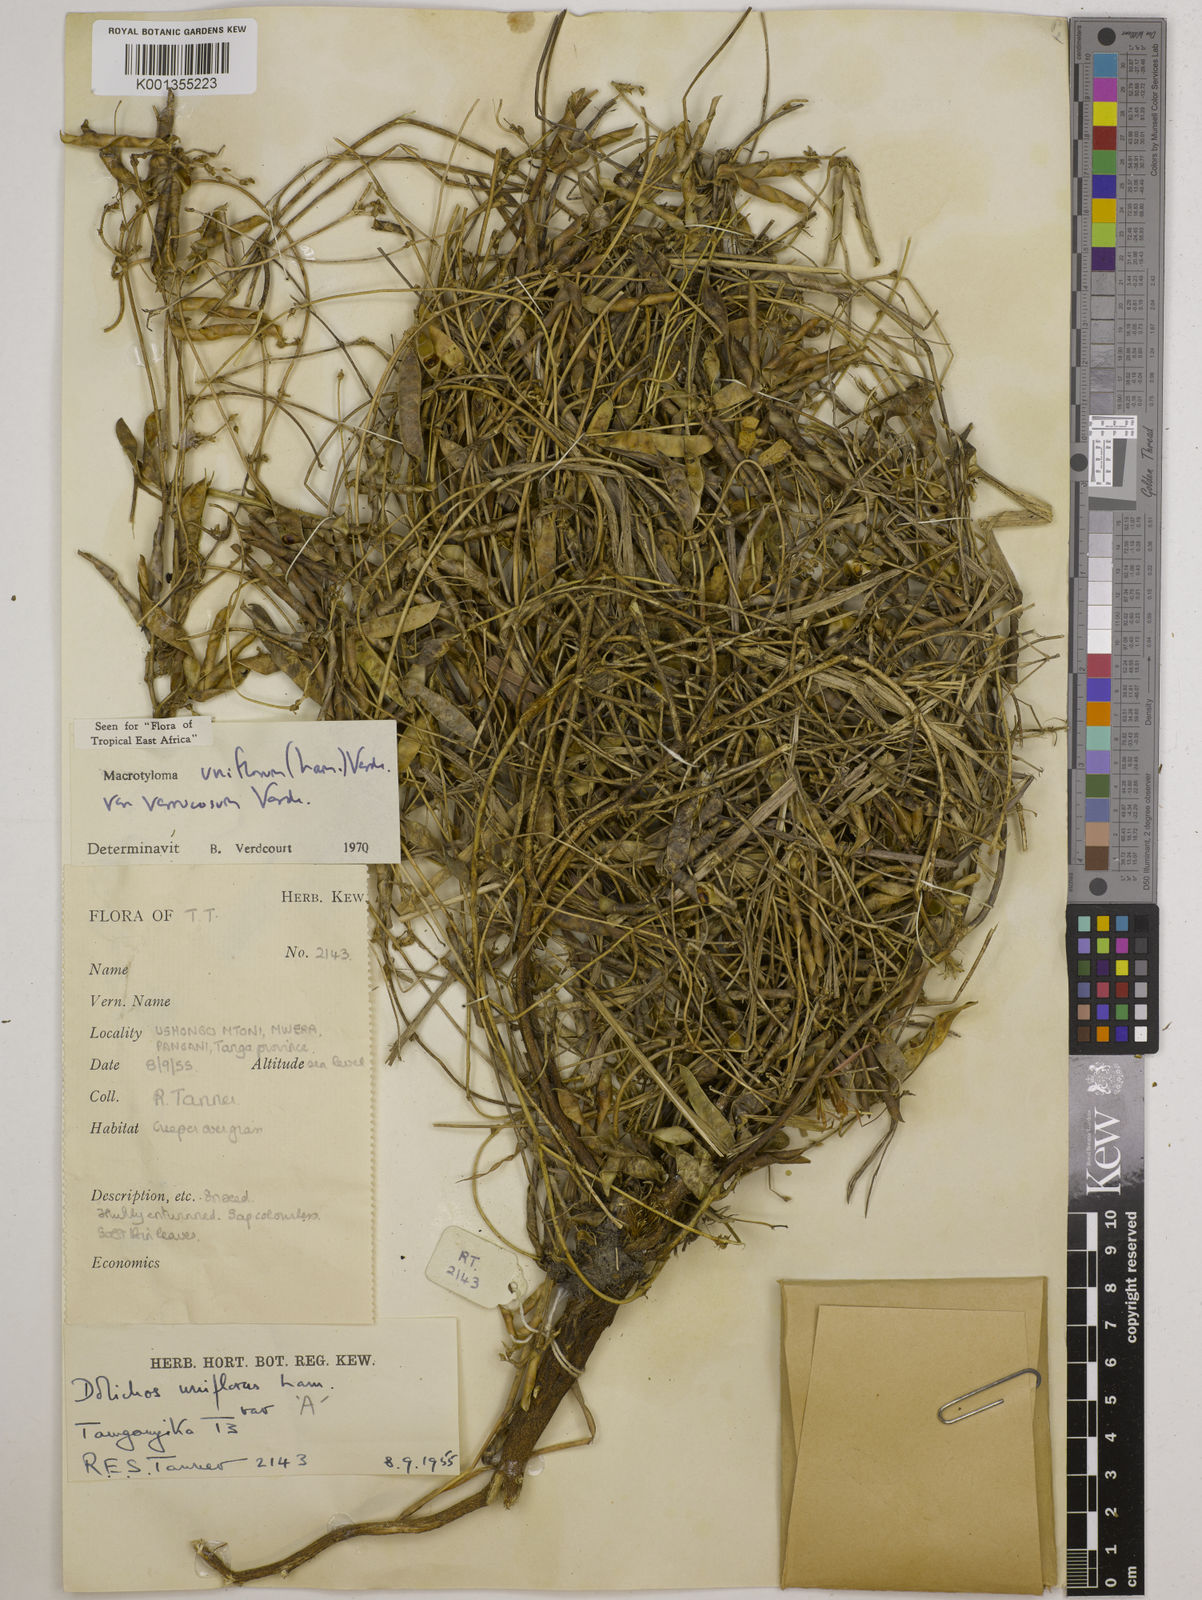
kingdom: Plantae
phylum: Tracheophyta
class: Magnoliopsida
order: Fabales
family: Fabaceae
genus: Macrotyloma
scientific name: Macrotyloma
